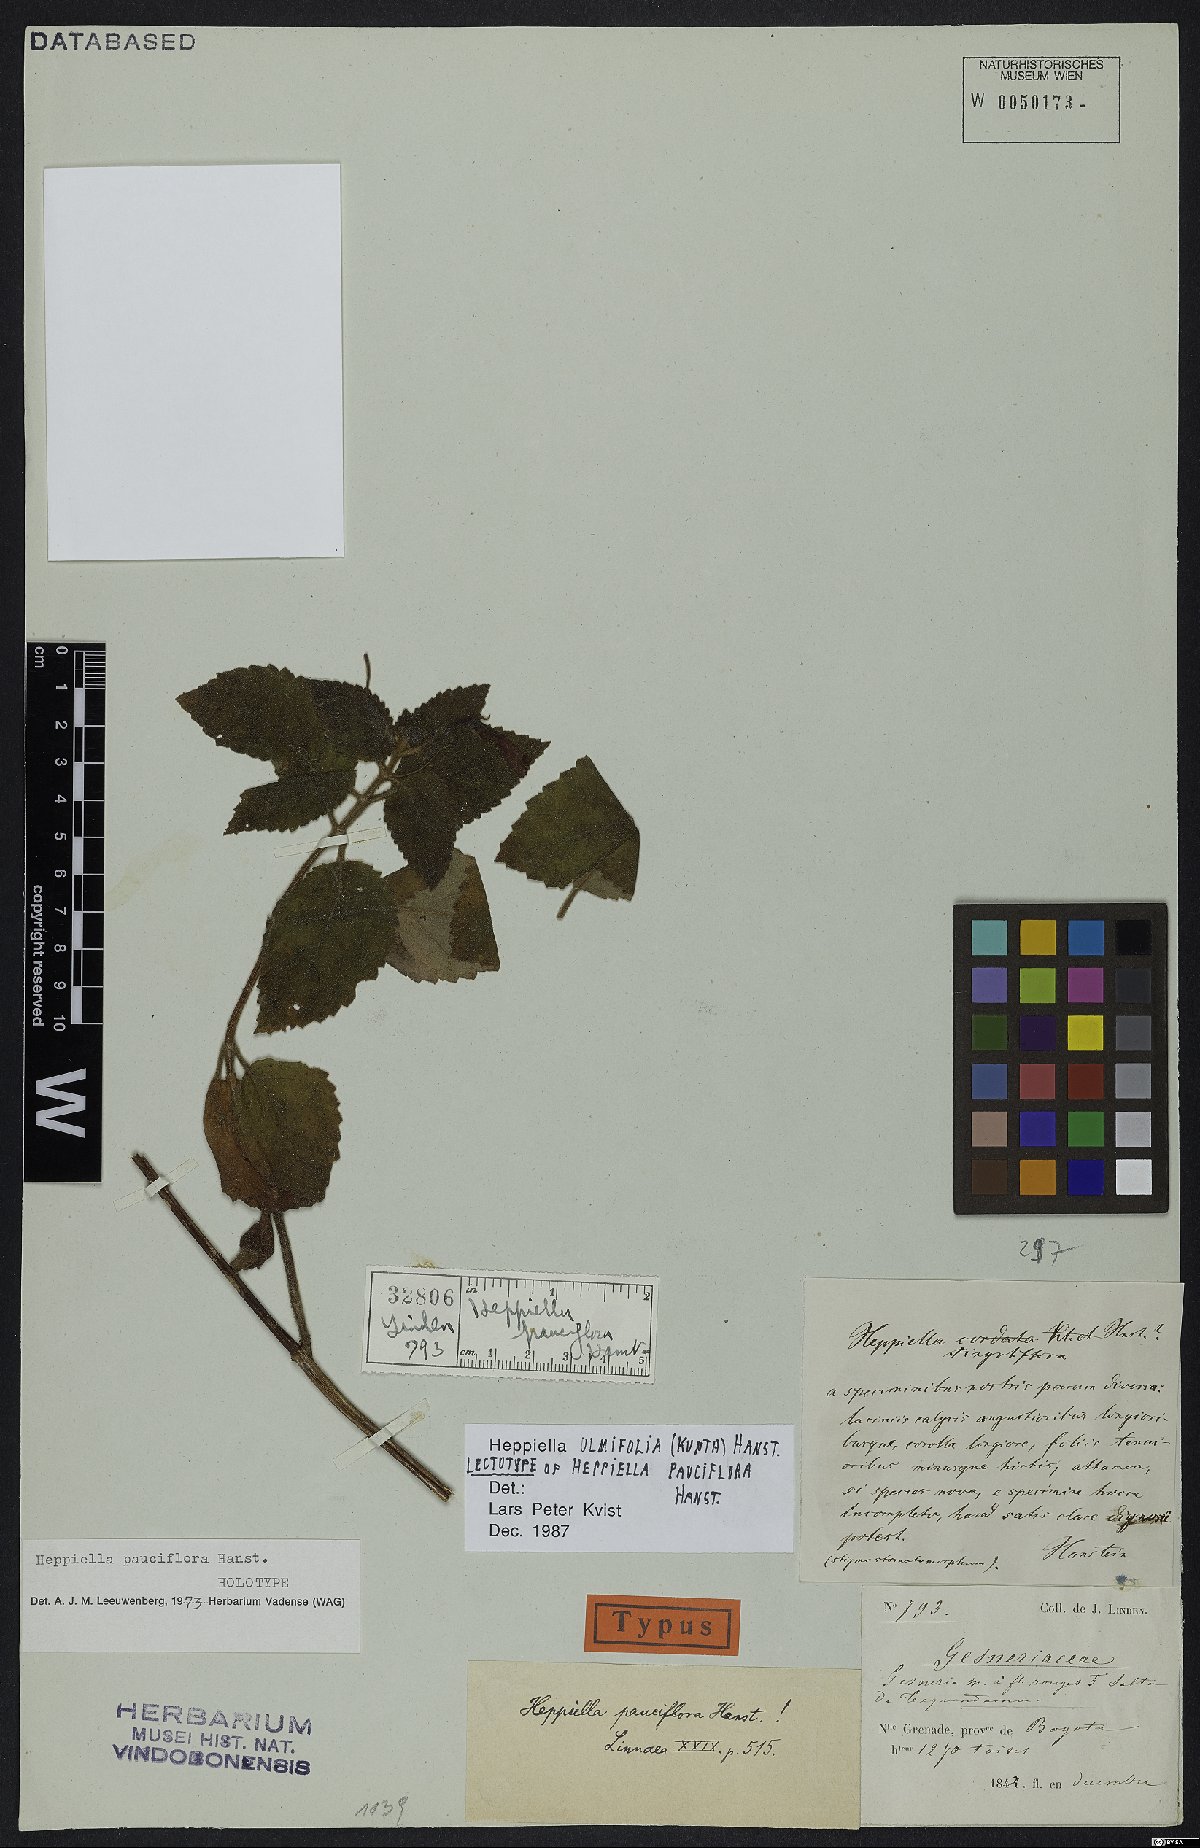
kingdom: Plantae
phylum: Tracheophyta
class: Magnoliopsida
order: Lamiales
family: Gesneriaceae
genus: Heppiella
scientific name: Heppiella ulmifolia
